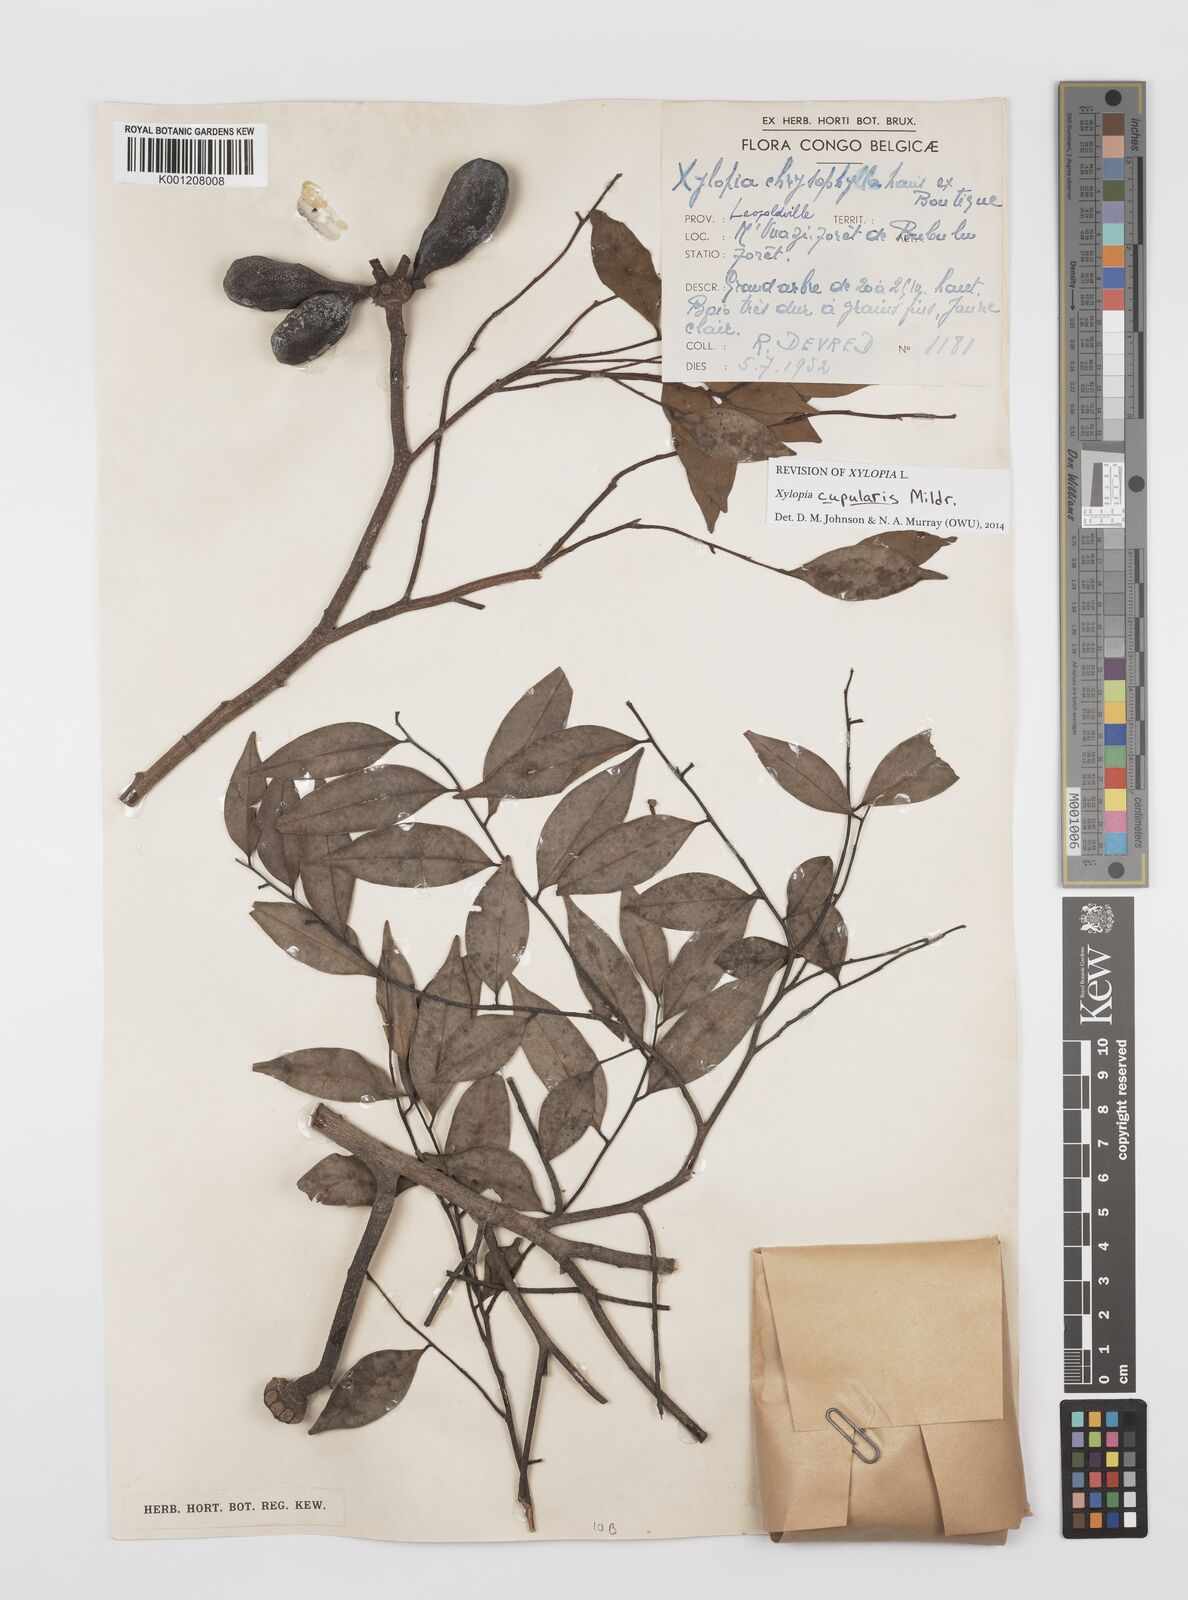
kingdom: Plantae
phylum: Tracheophyta
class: Magnoliopsida
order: Magnoliales
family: Annonaceae
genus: Xylopia
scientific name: Xylopia cupularis
